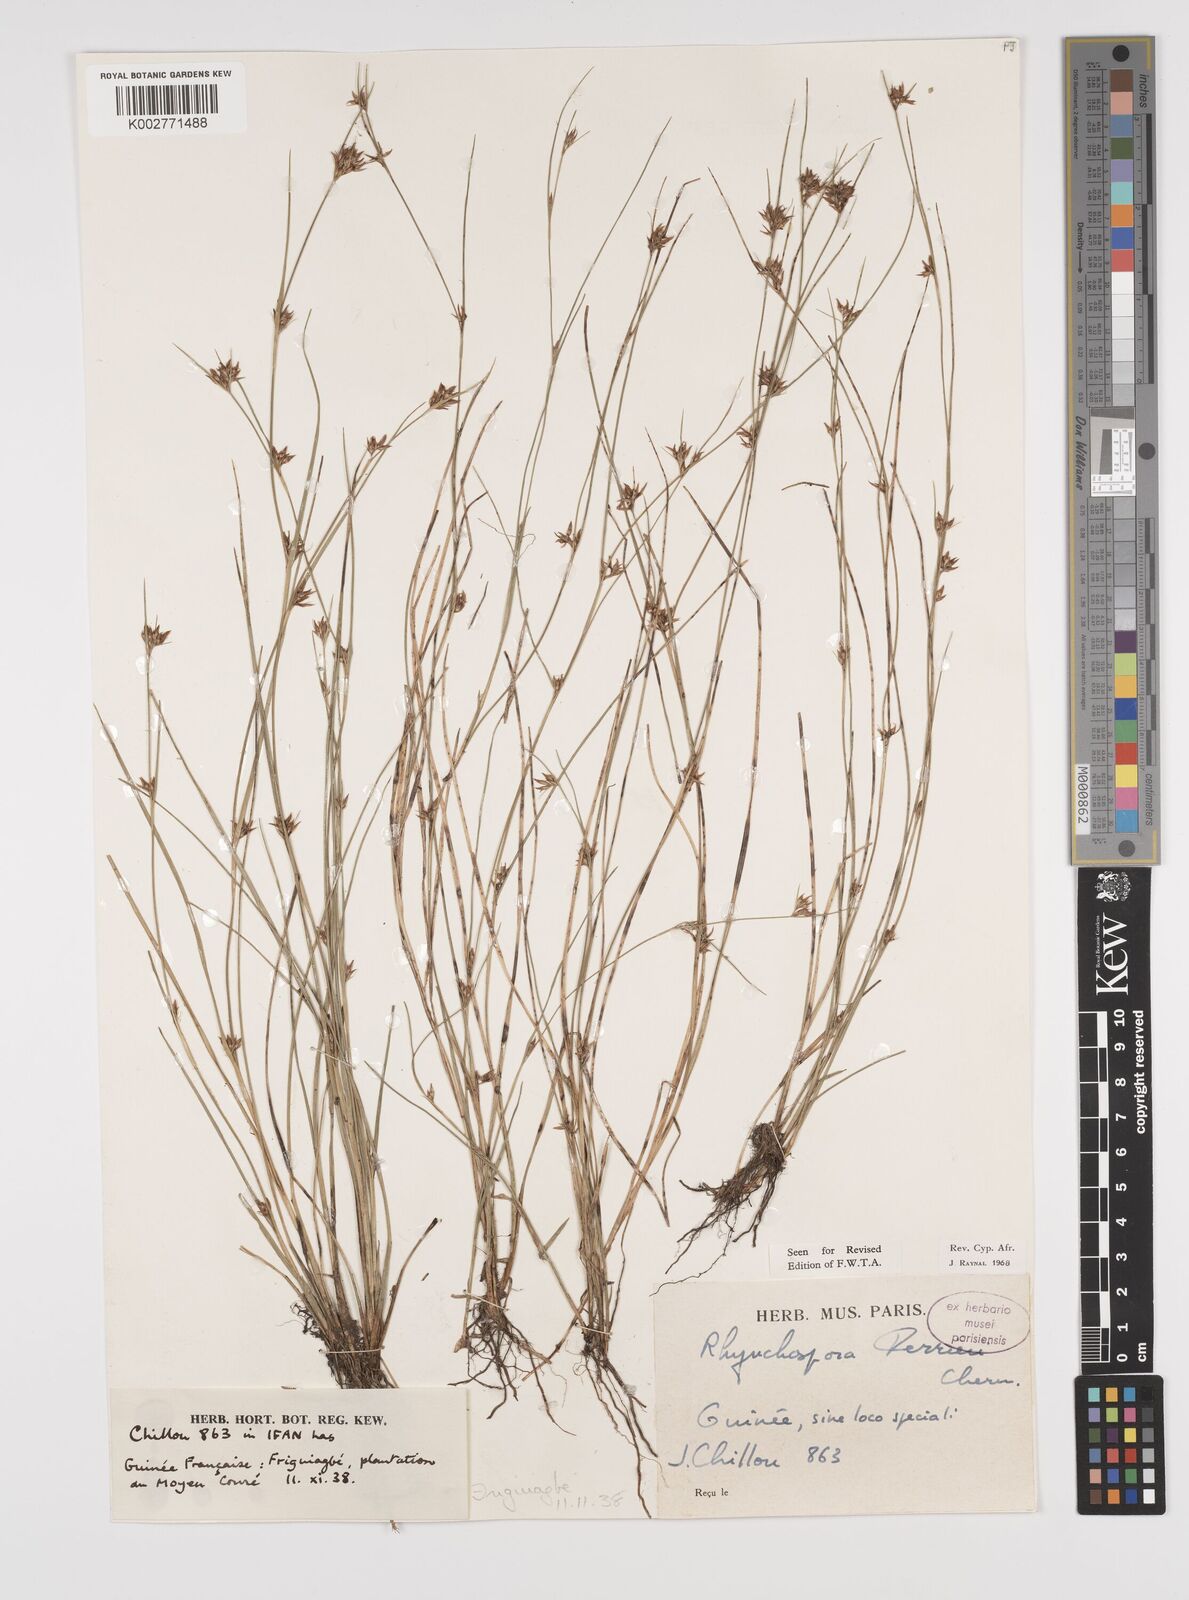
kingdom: Plantae
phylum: Tracheophyta
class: Liliopsida
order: Poales
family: Cyperaceae
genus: Rhynchospora
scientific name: Rhynchospora perrieri
